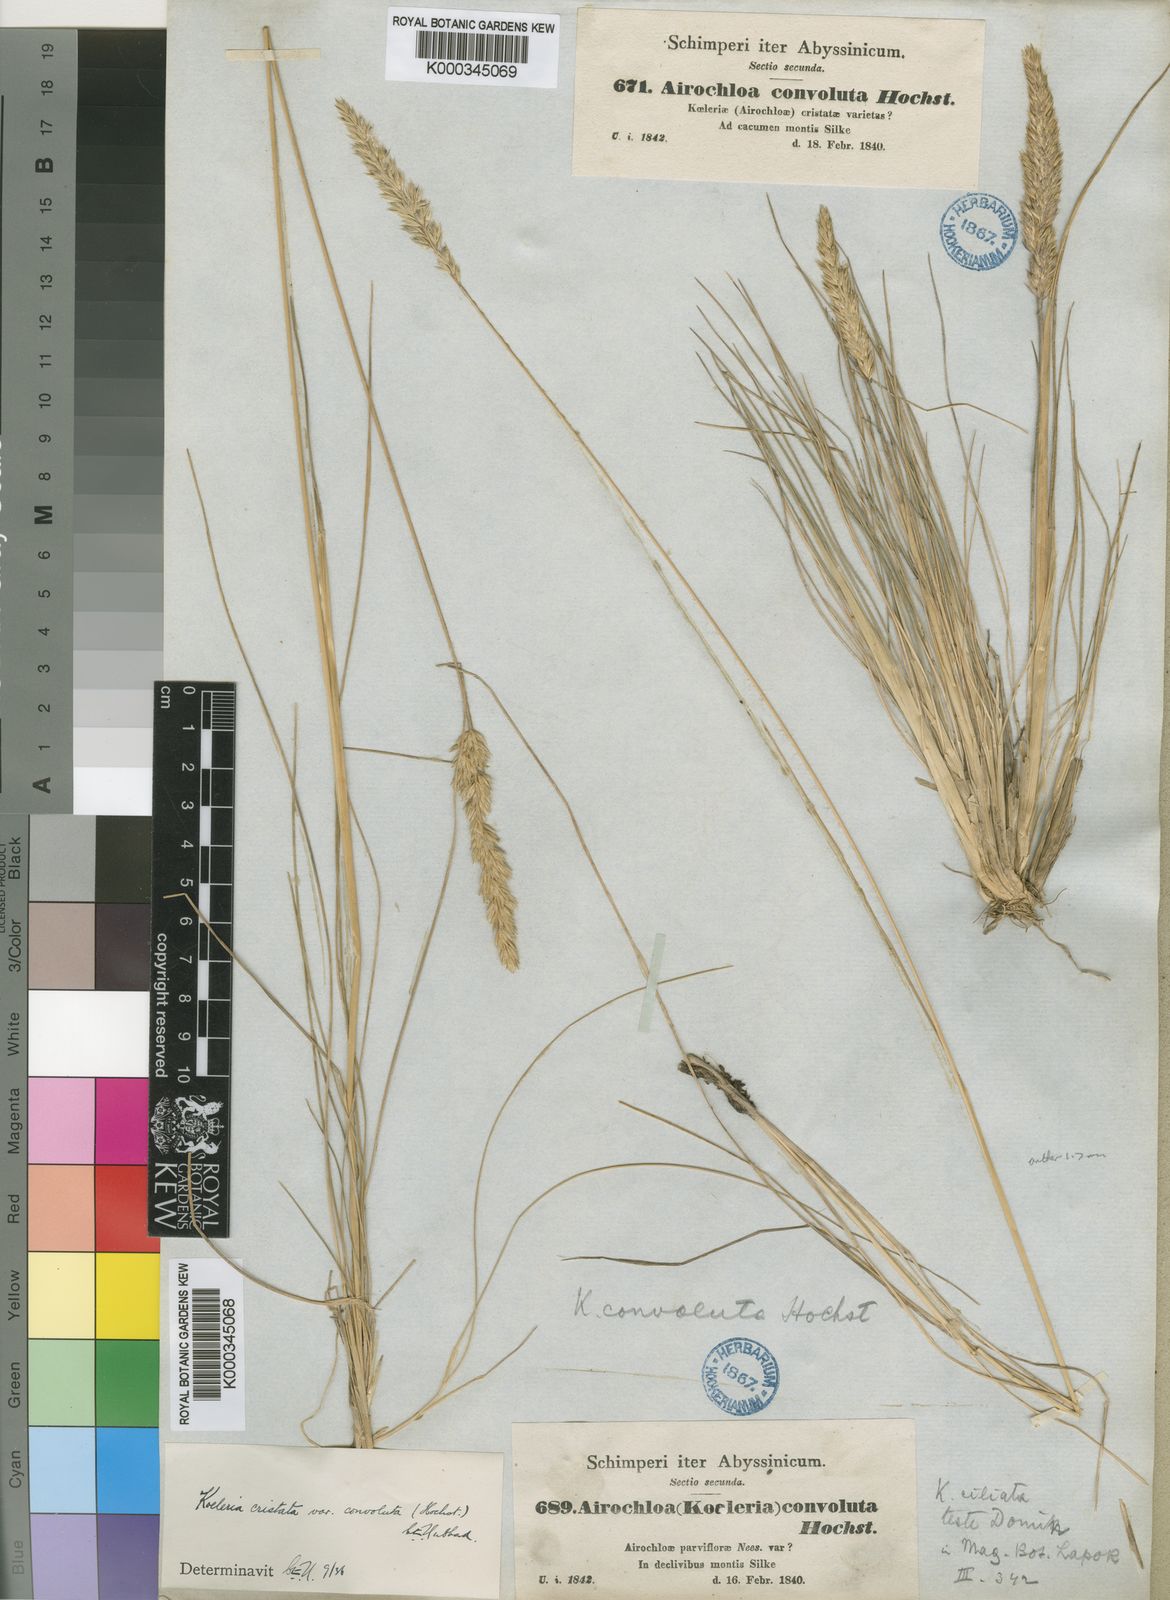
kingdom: Plantae
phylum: Tracheophyta
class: Liliopsida
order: Poales
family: Poaceae
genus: Koeleria
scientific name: Koeleria capensis
